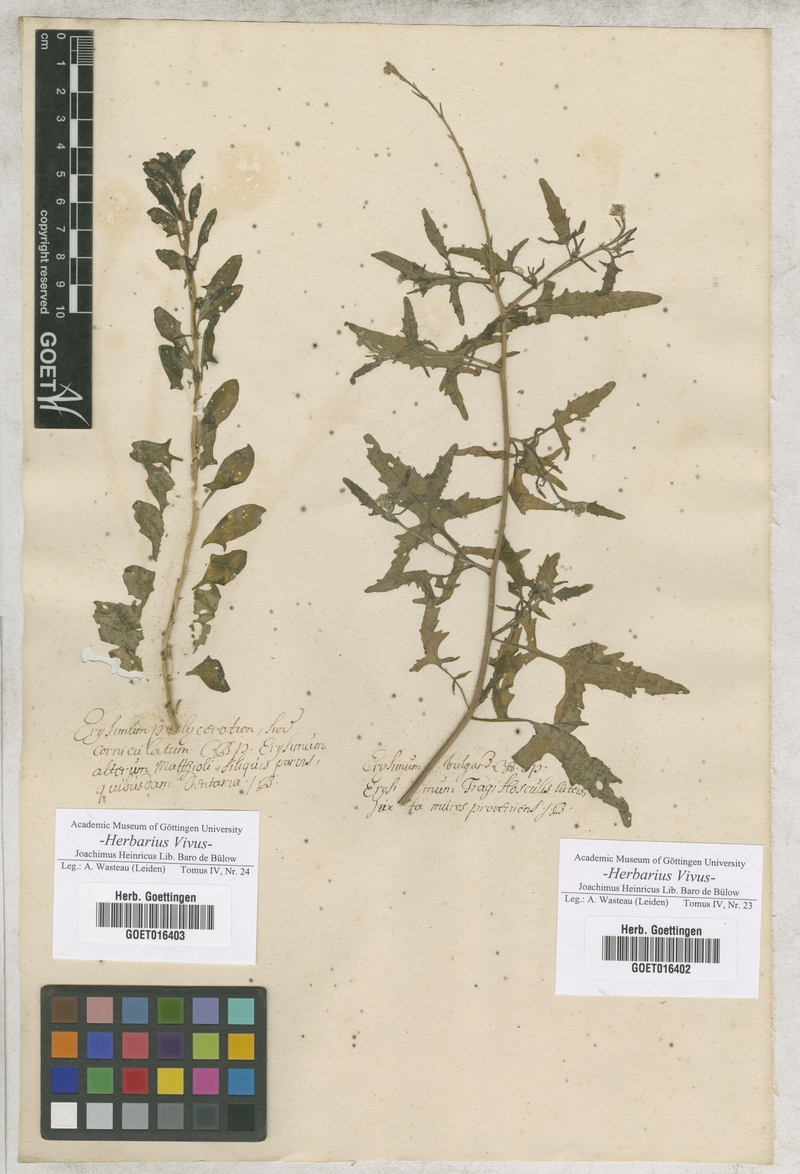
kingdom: Plantae
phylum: Tracheophyta
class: Magnoliopsida
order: Brassicales
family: Brassicaceae
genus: Sisymbrium
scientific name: Sisymbrium officinale
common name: Hedge mustard
